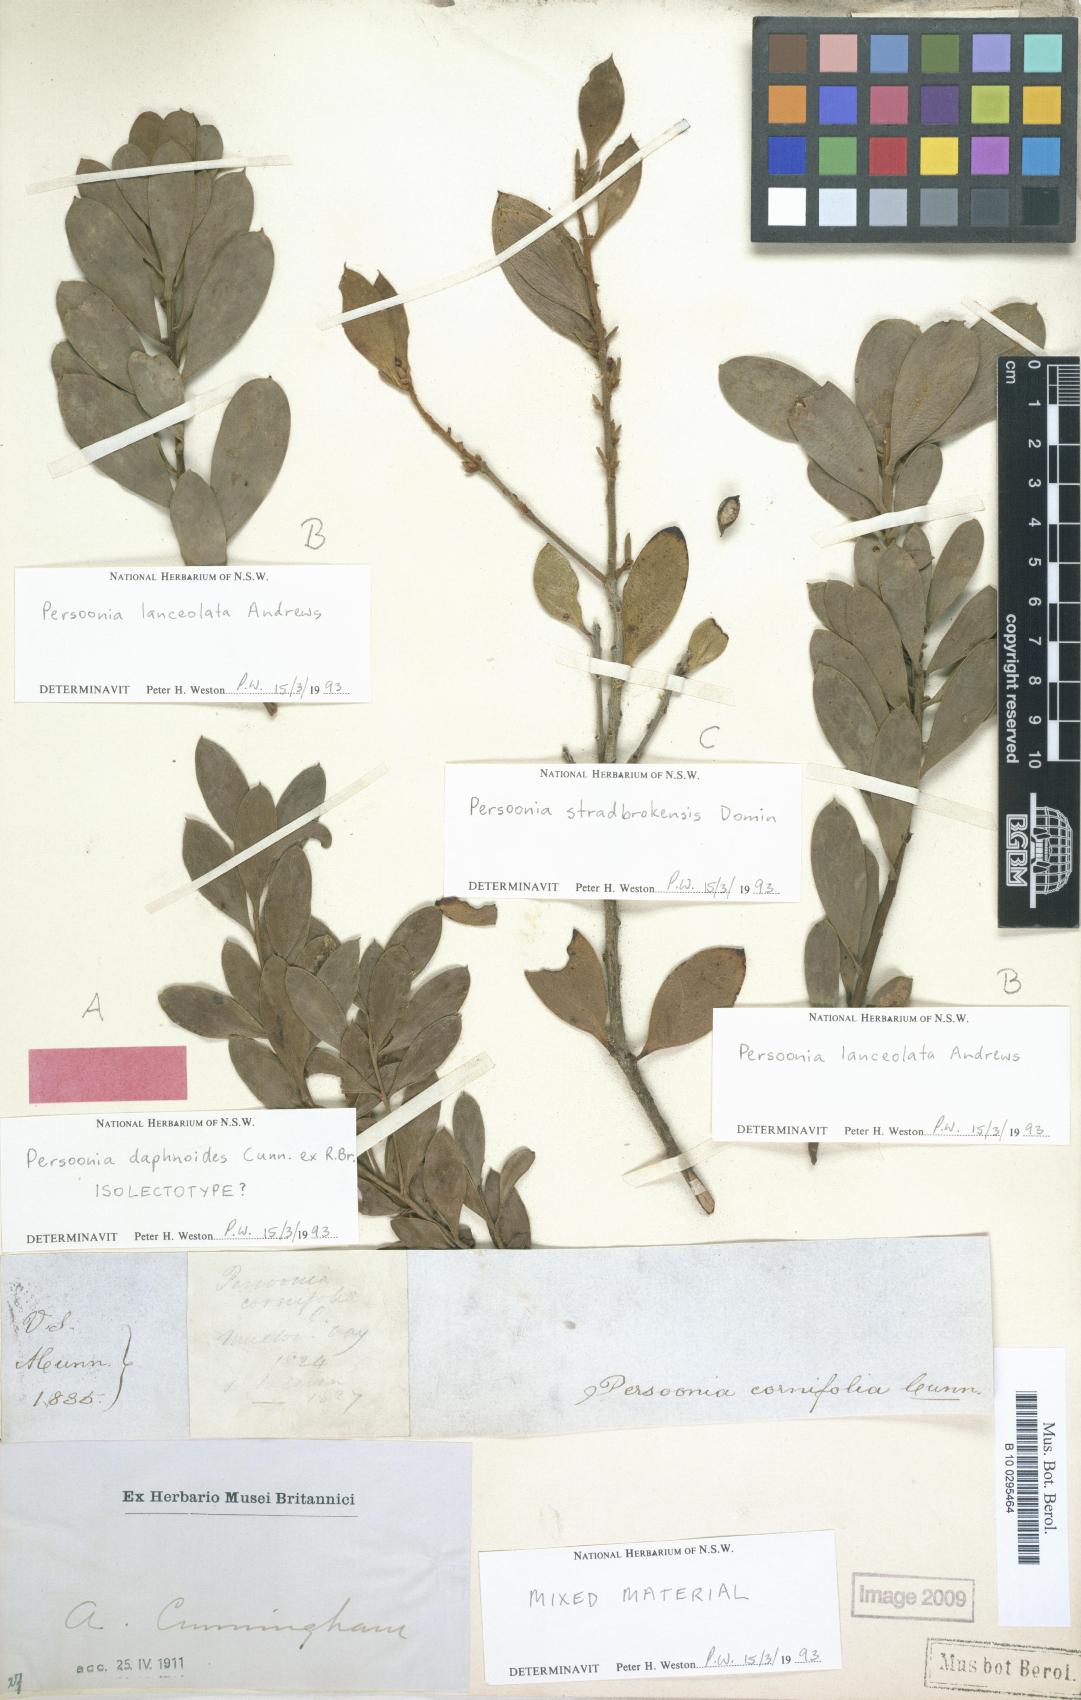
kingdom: Plantae
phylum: Tracheophyta
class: Magnoliopsida
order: Proteales
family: Proteaceae
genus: Persoonia
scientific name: Persoonia daphnoides
